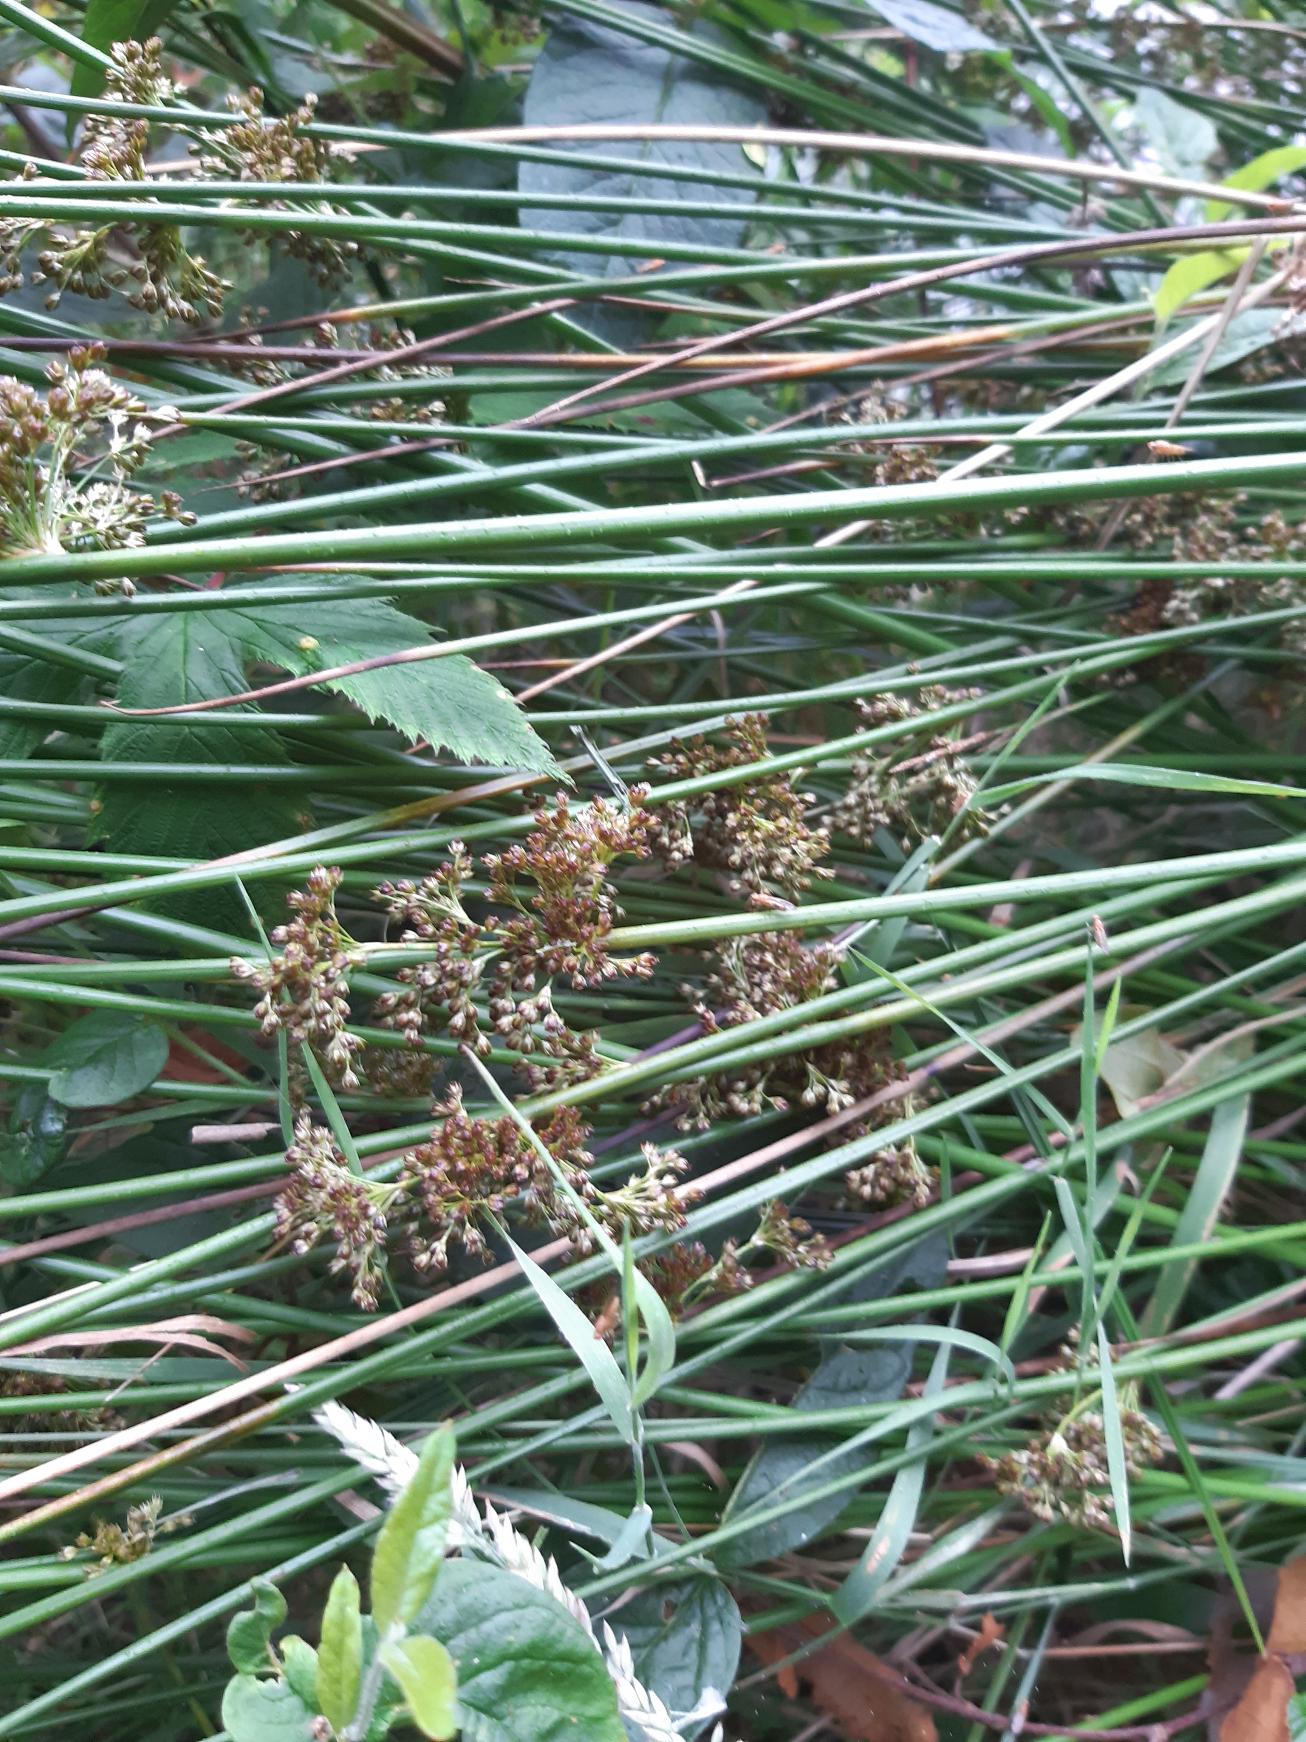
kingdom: Plantae
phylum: Tracheophyta
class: Liliopsida
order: Poales
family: Juncaceae
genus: Juncus
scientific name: Juncus effusus
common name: Lyse-siv
